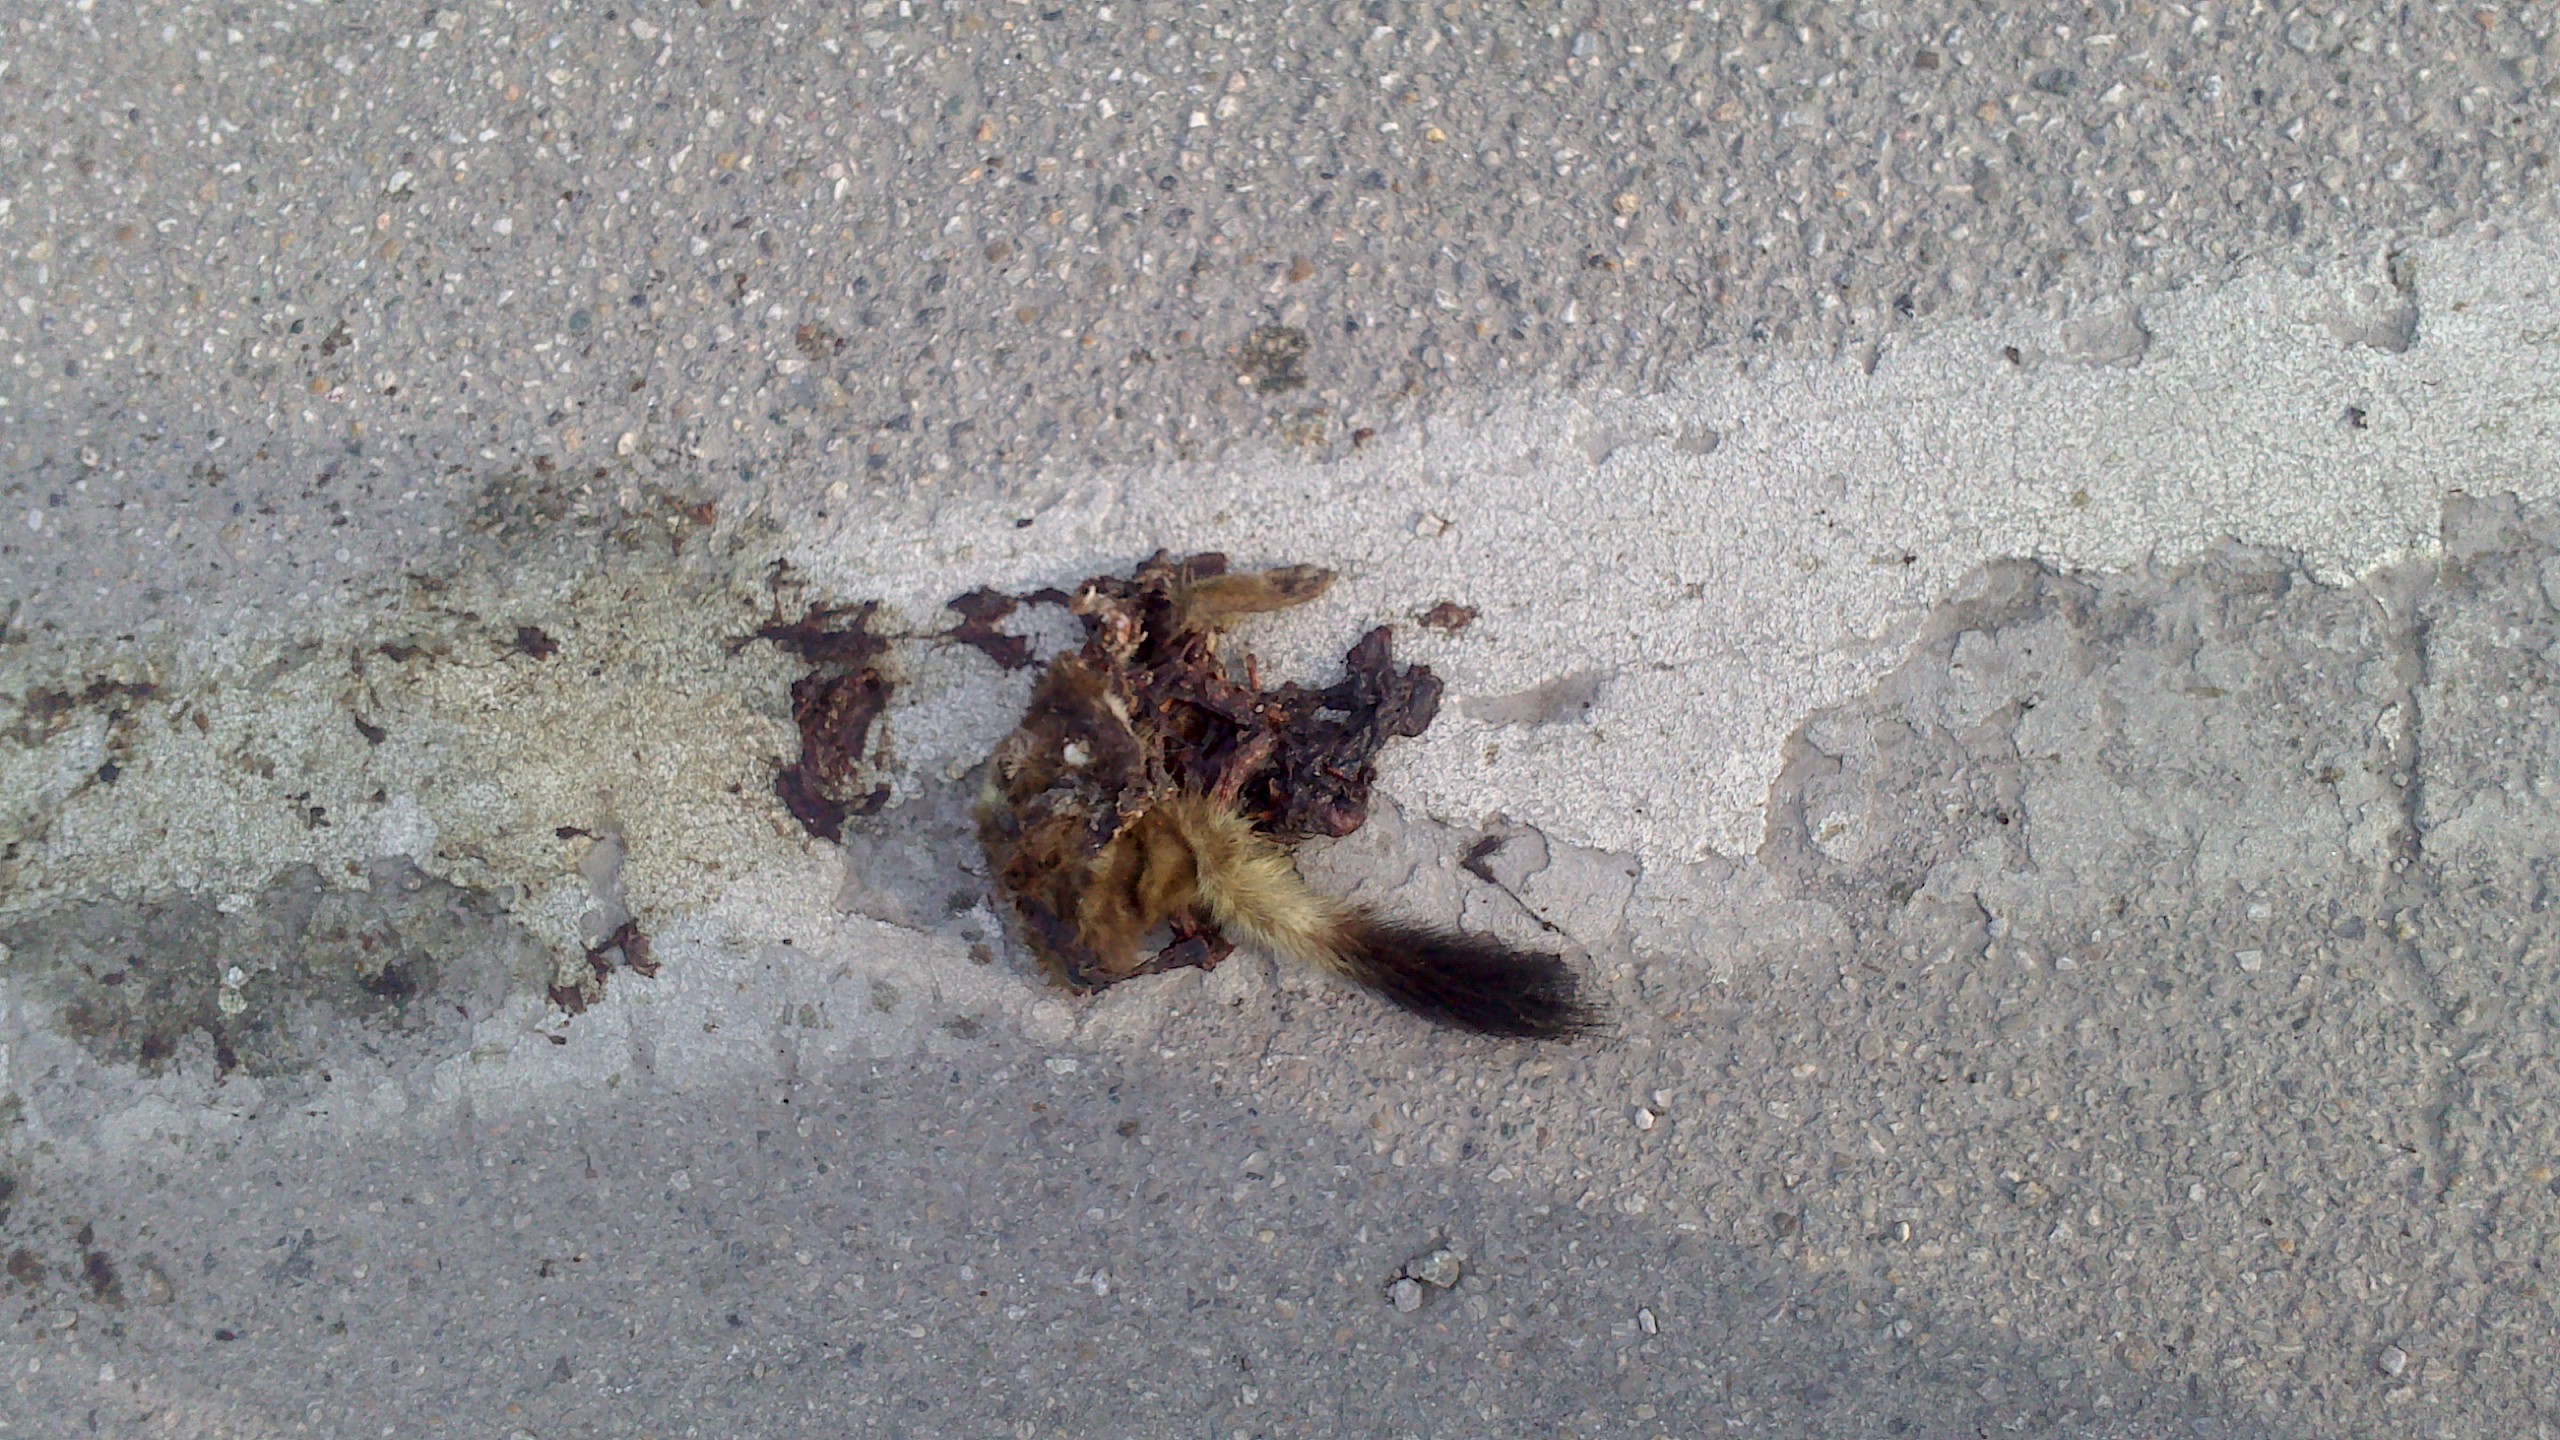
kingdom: Animalia
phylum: Chordata
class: Mammalia
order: Carnivora
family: Mustelidae
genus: Mustela
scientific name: Mustela erminea
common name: Stoat
